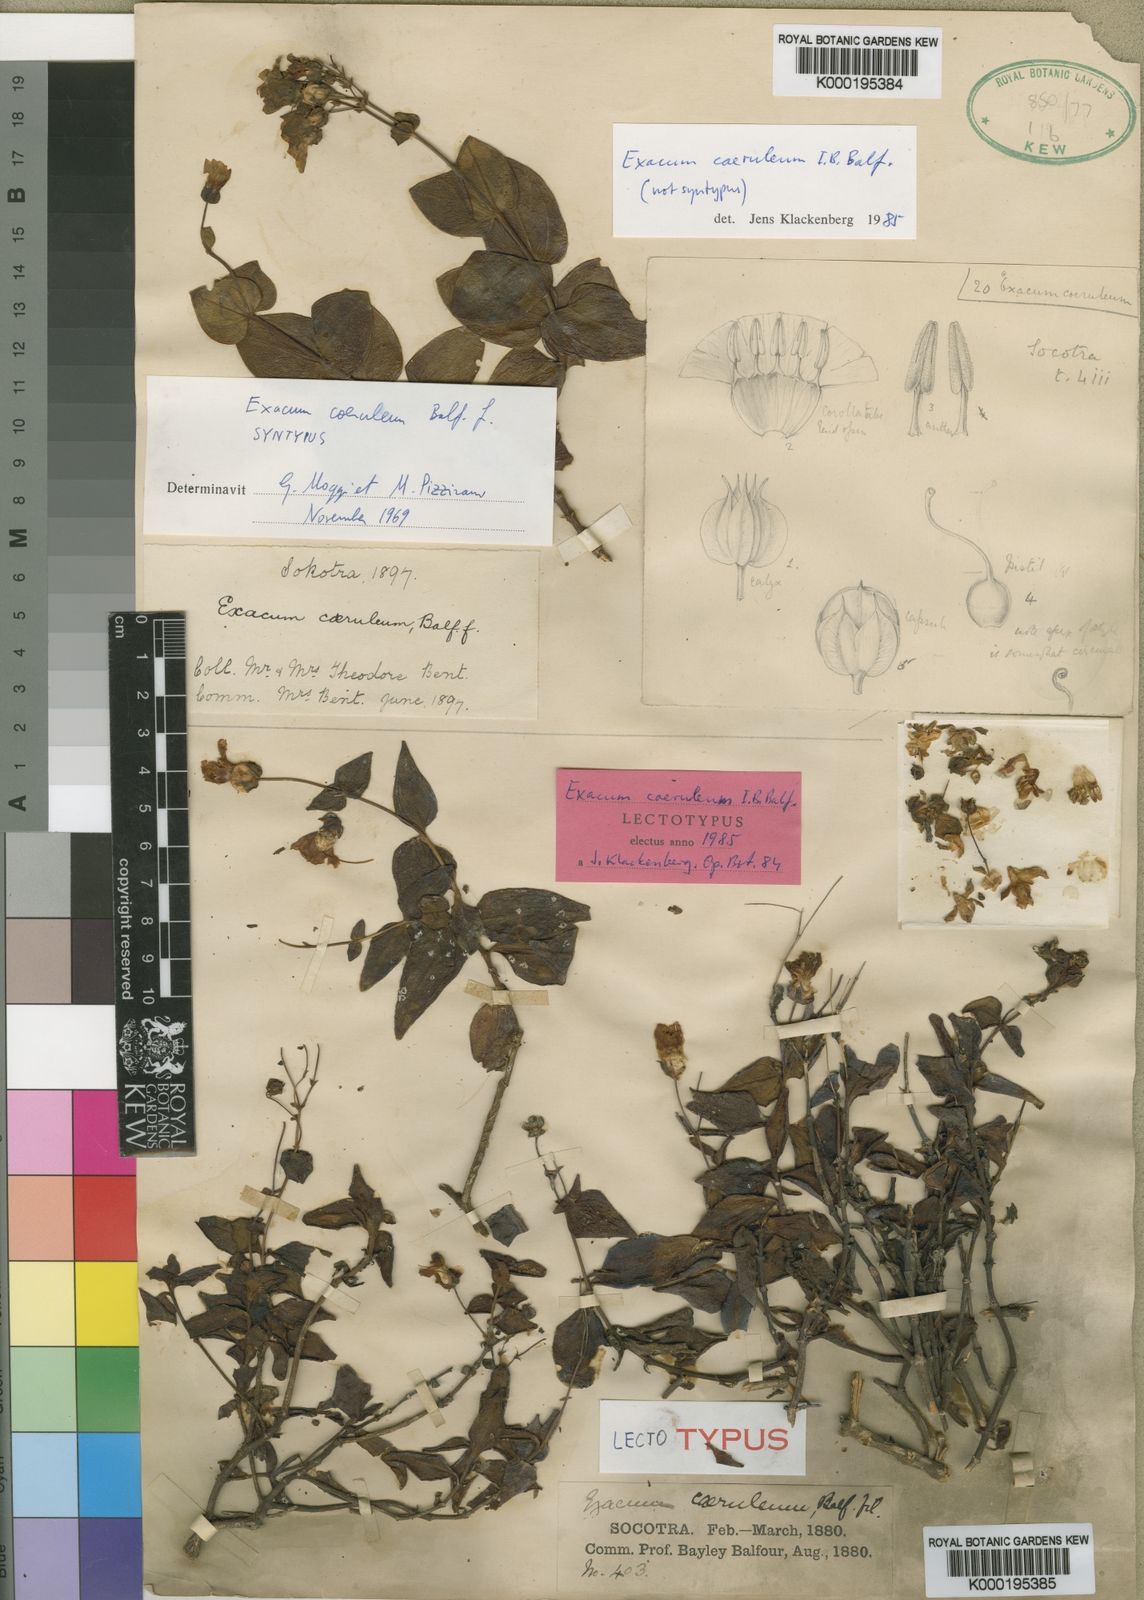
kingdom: Plantae
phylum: Tracheophyta
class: Magnoliopsida
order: Gentianales
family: Gentianaceae
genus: Exacum
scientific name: Exacum caeruleum
